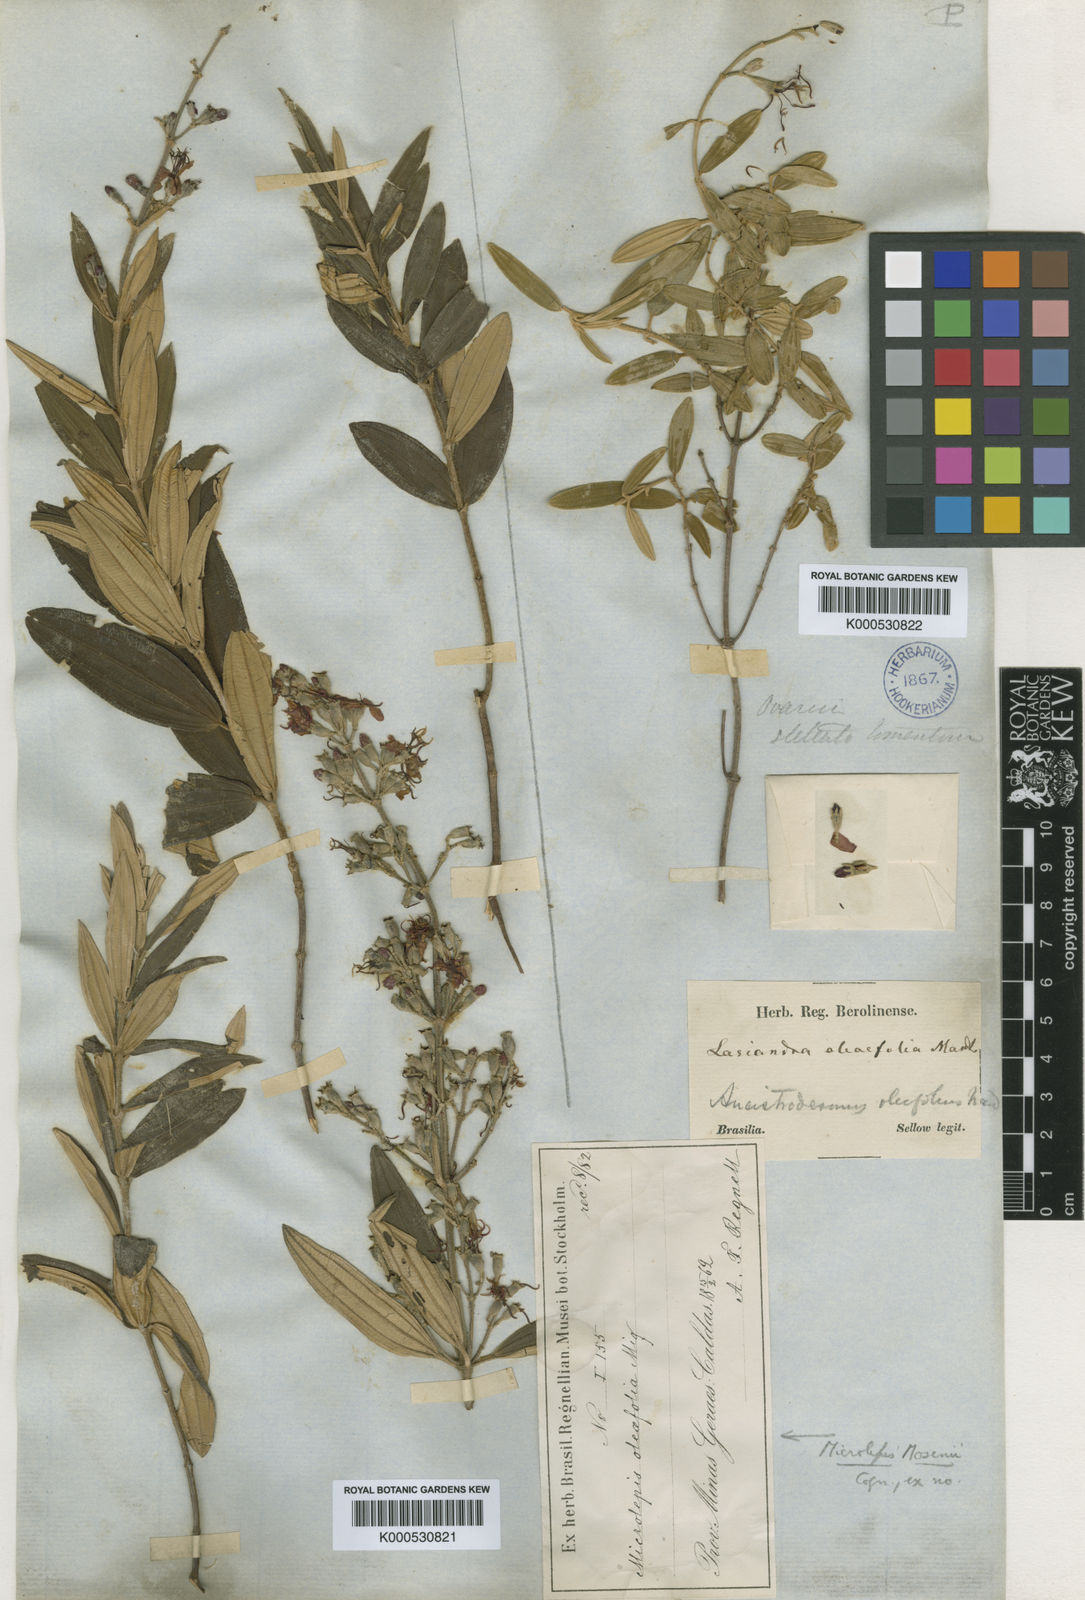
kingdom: Plantae
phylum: Tracheophyta
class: Magnoliopsida
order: Myrtales
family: Melastomataceae
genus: Pleroma
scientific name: Pleroma kleinii
